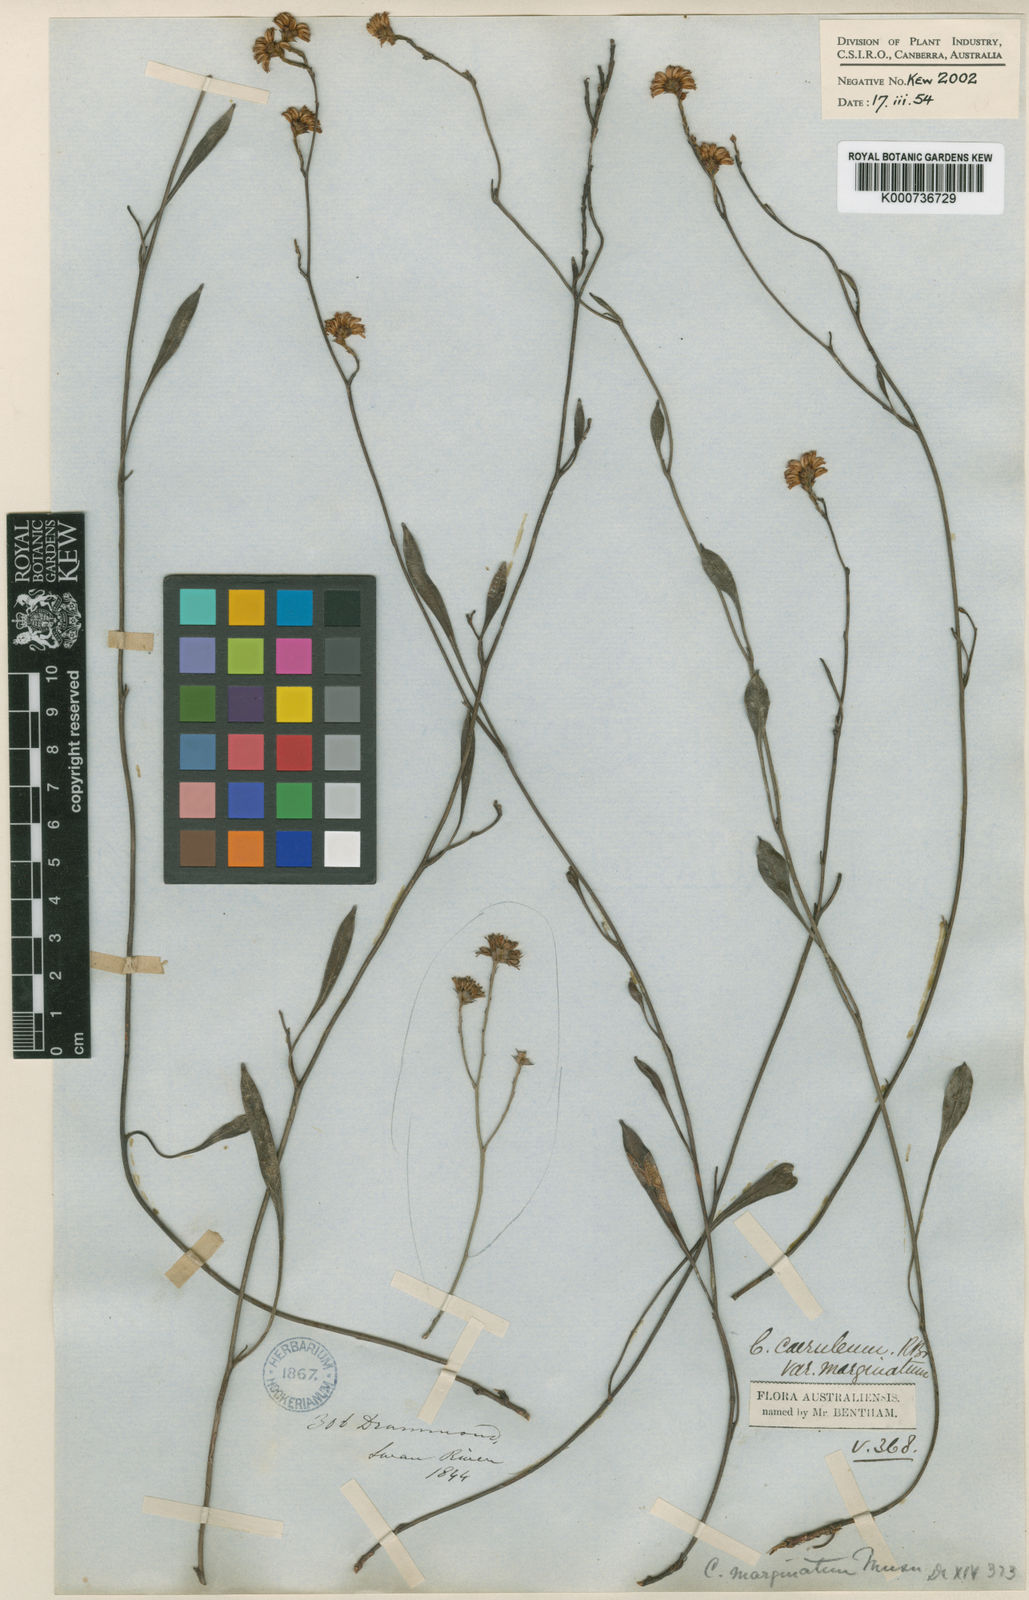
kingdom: Plantae
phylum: Tracheophyta
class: Magnoliopsida
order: Proteales
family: Proteaceae
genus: Conospermum
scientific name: Conospermum caeruleum
